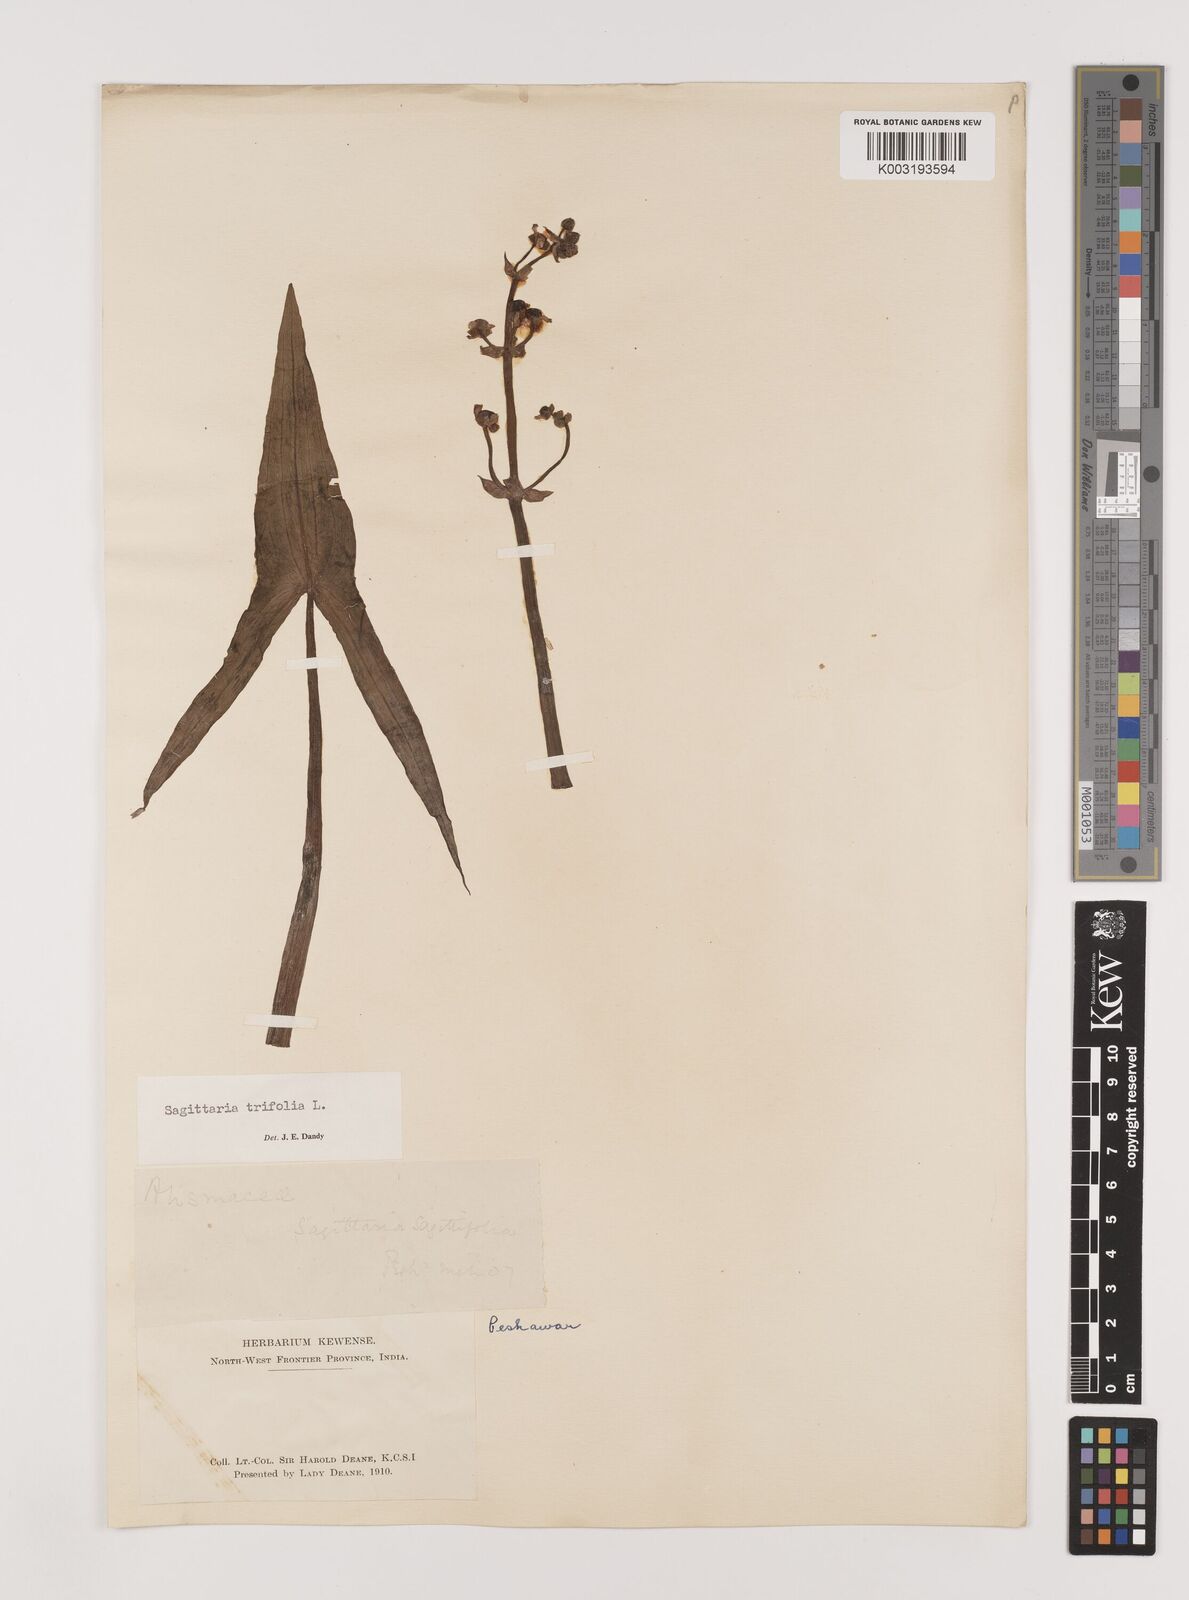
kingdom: Plantae
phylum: Tracheophyta
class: Liliopsida
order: Alismatales
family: Alismataceae
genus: Sagittaria
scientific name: Sagittaria sagittifolia
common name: Arrowhead
